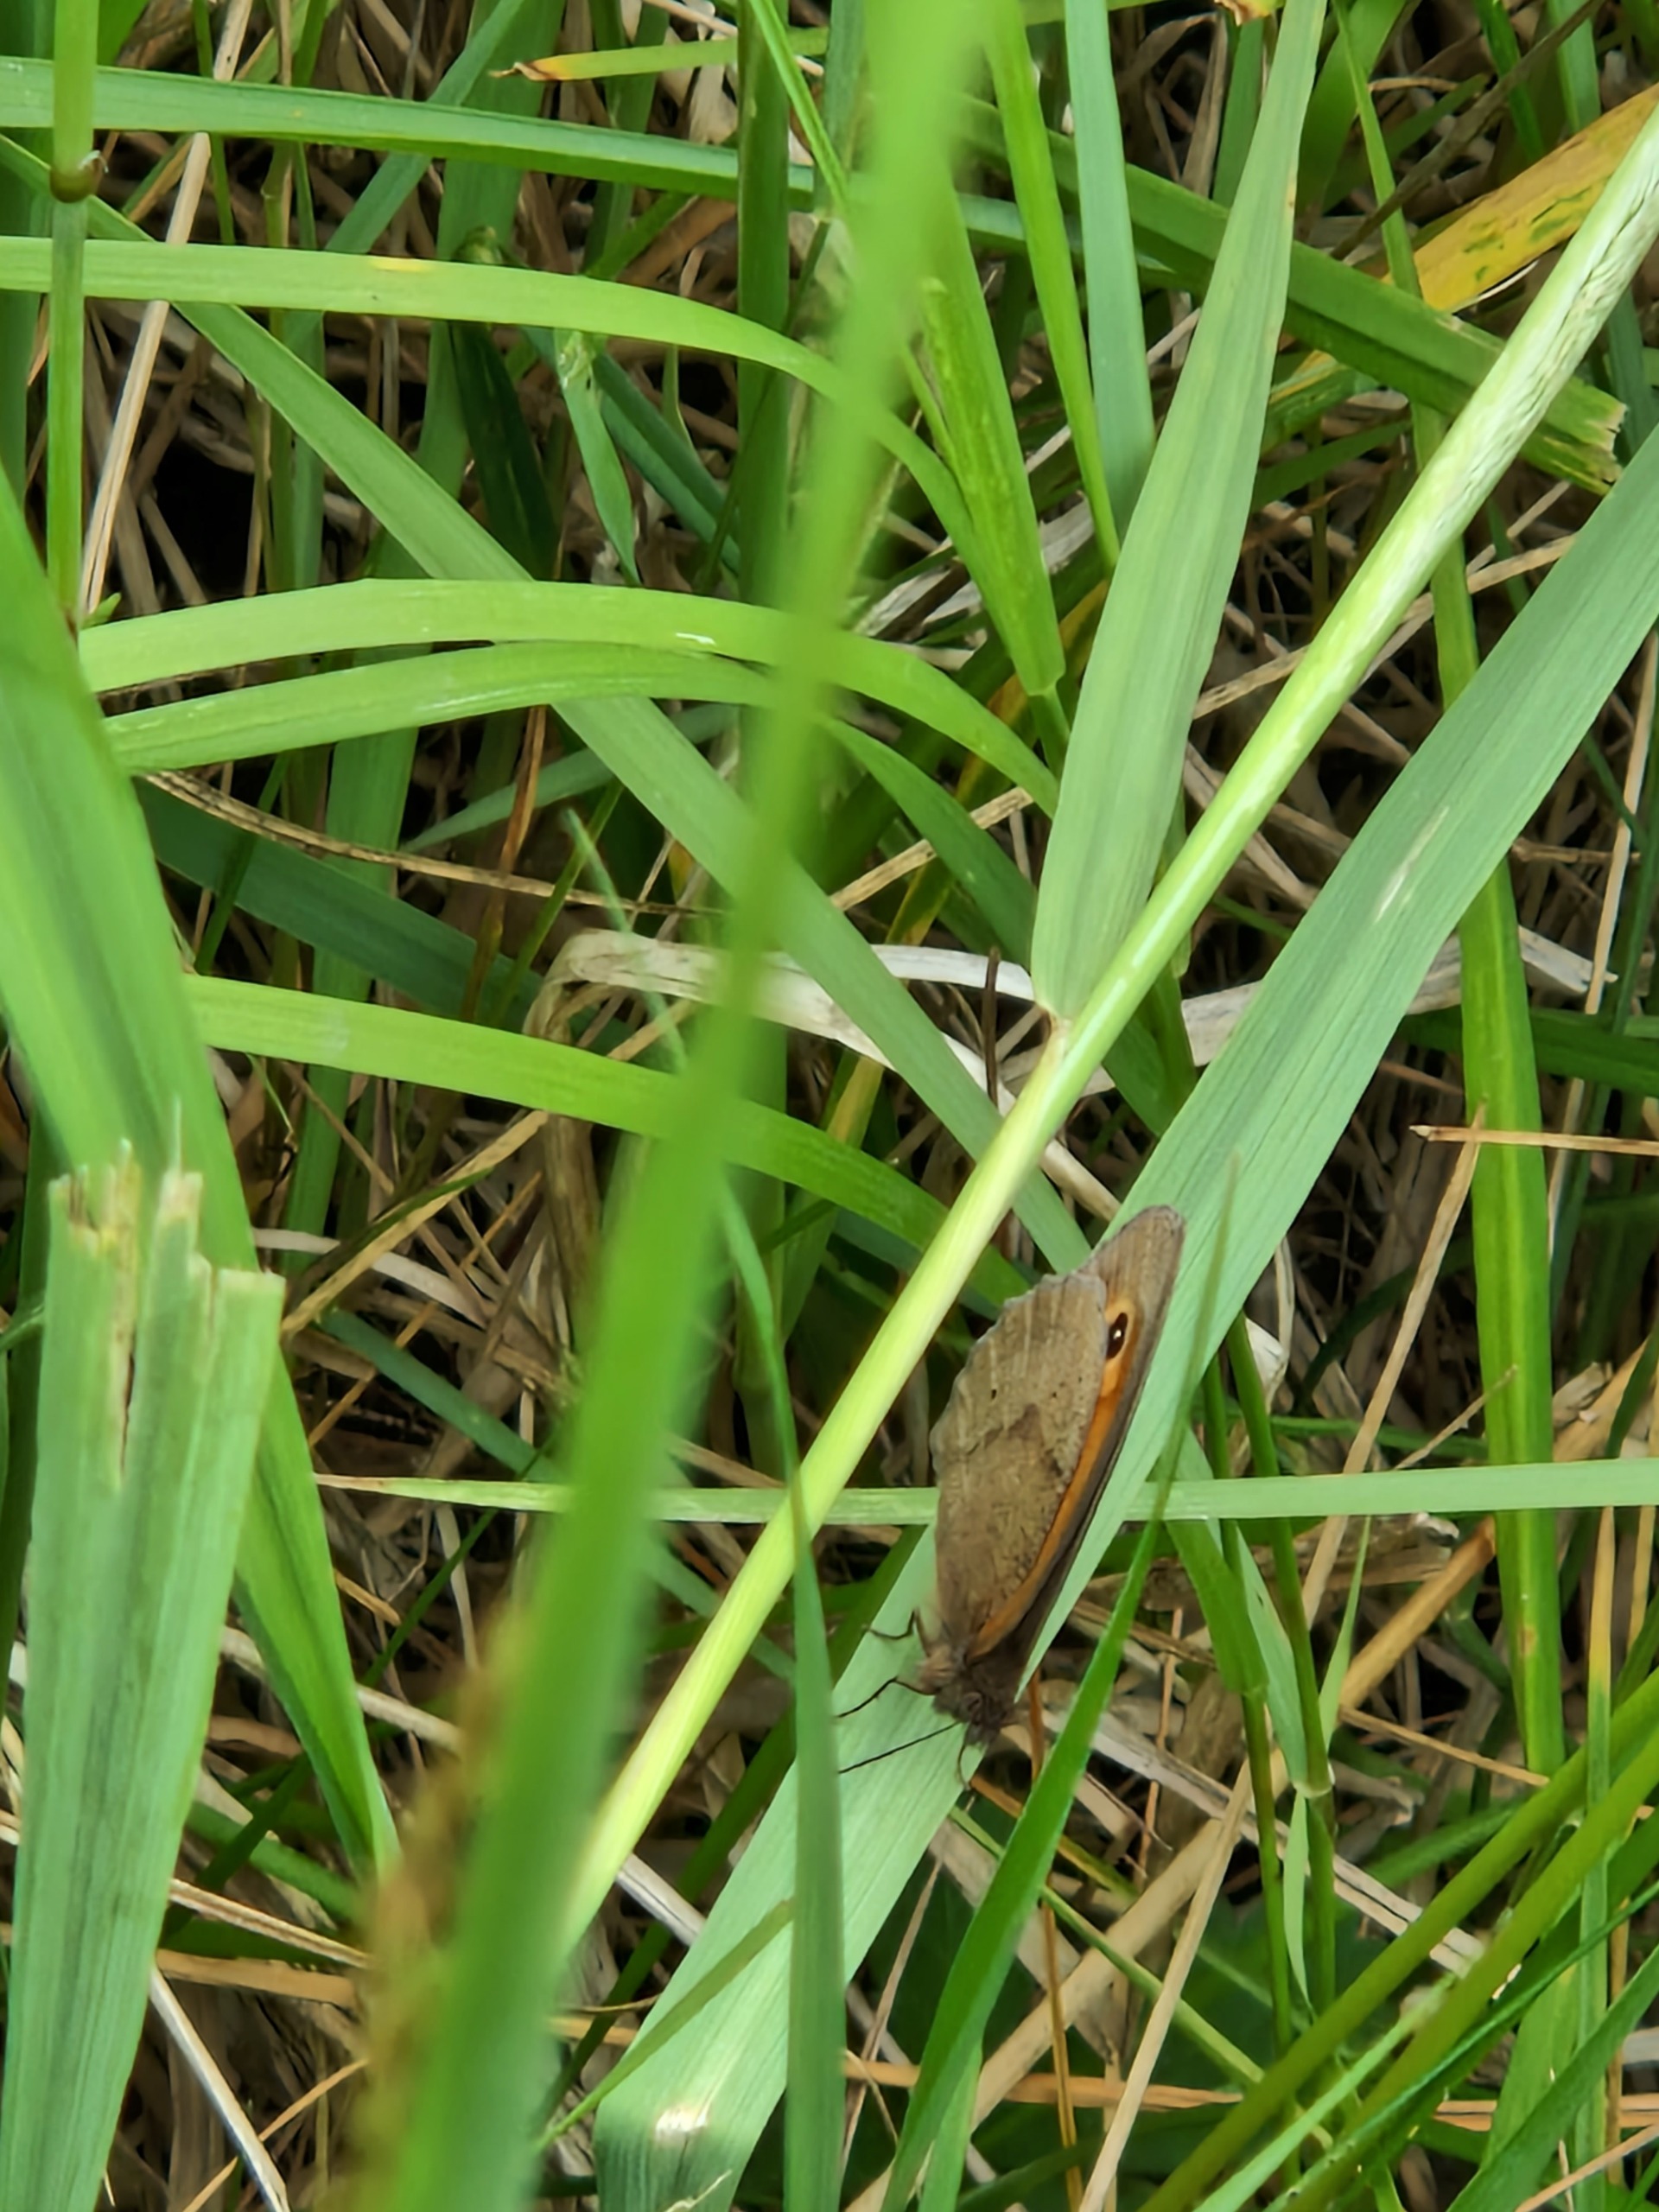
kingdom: Animalia
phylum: Arthropoda
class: Insecta
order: Lepidoptera
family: Nymphalidae
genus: Maniola
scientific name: Maniola jurtina
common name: Græsrandøje
